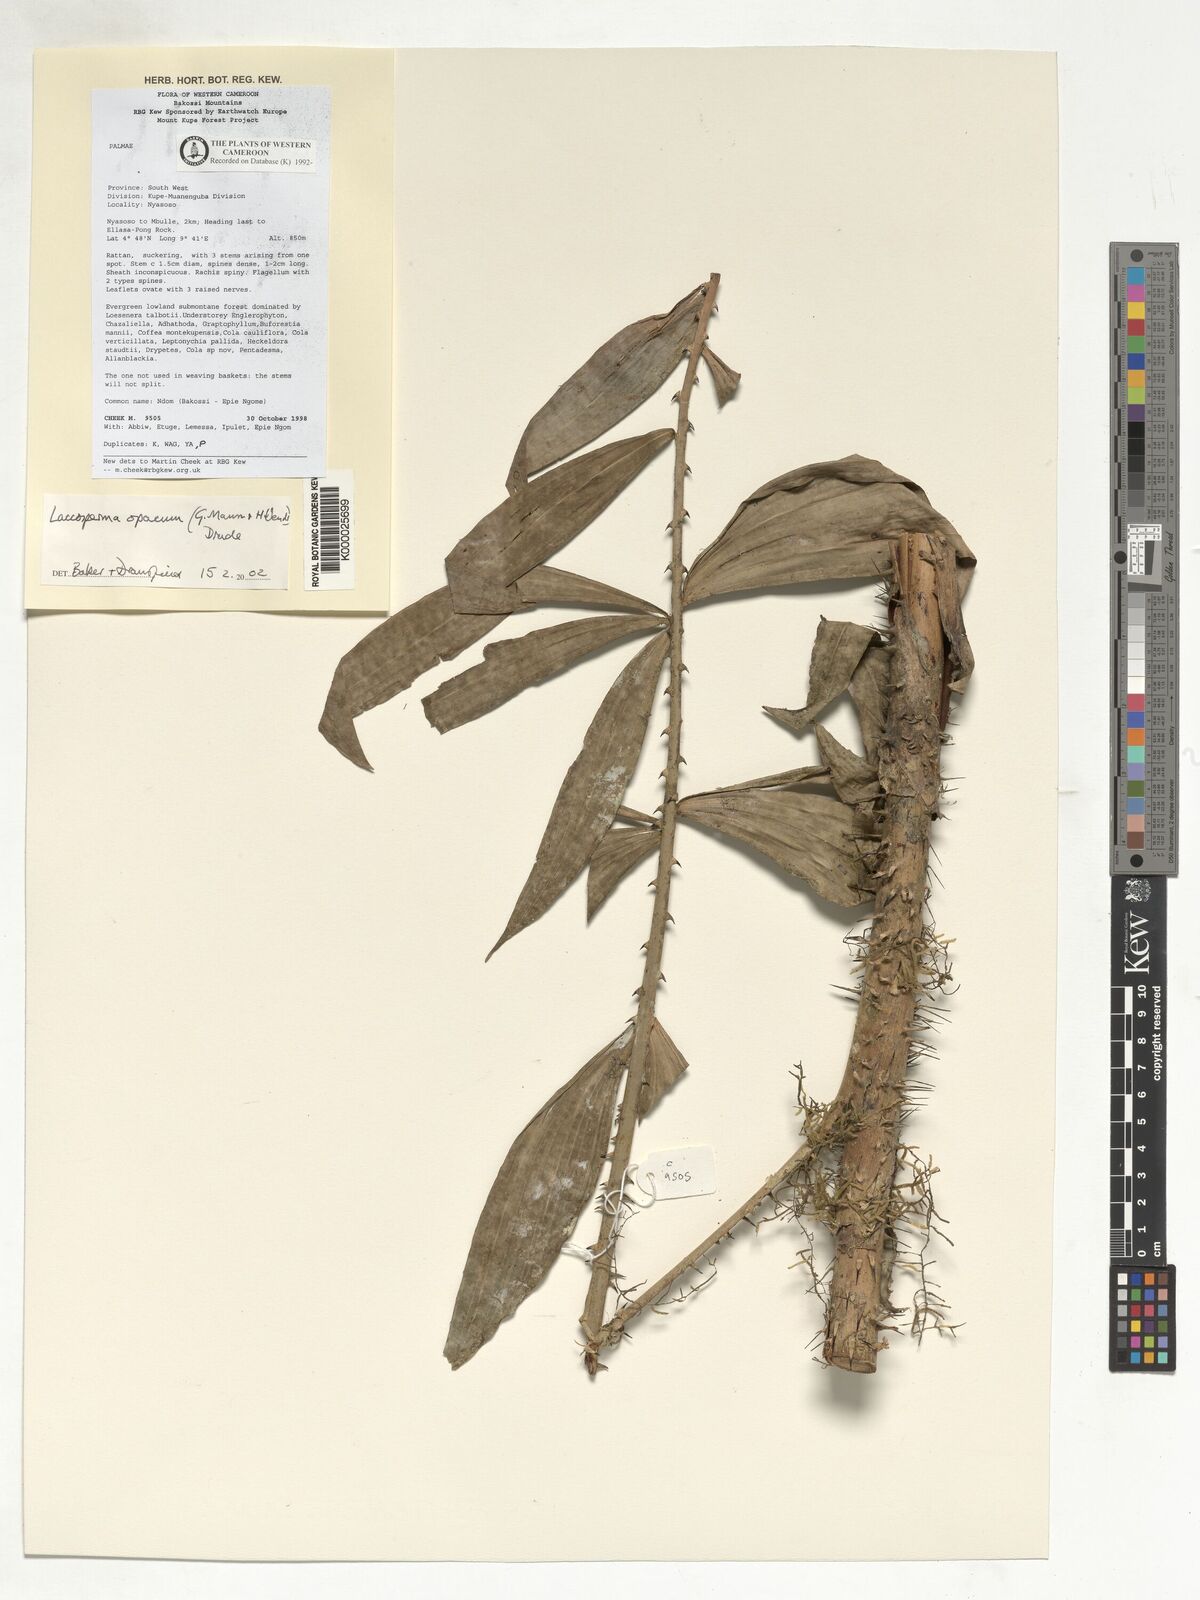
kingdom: Plantae
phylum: Tracheophyta
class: Liliopsida
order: Arecales
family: Arecaceae
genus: Laccosperma
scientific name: Laccosperma opacum
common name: Rattan
